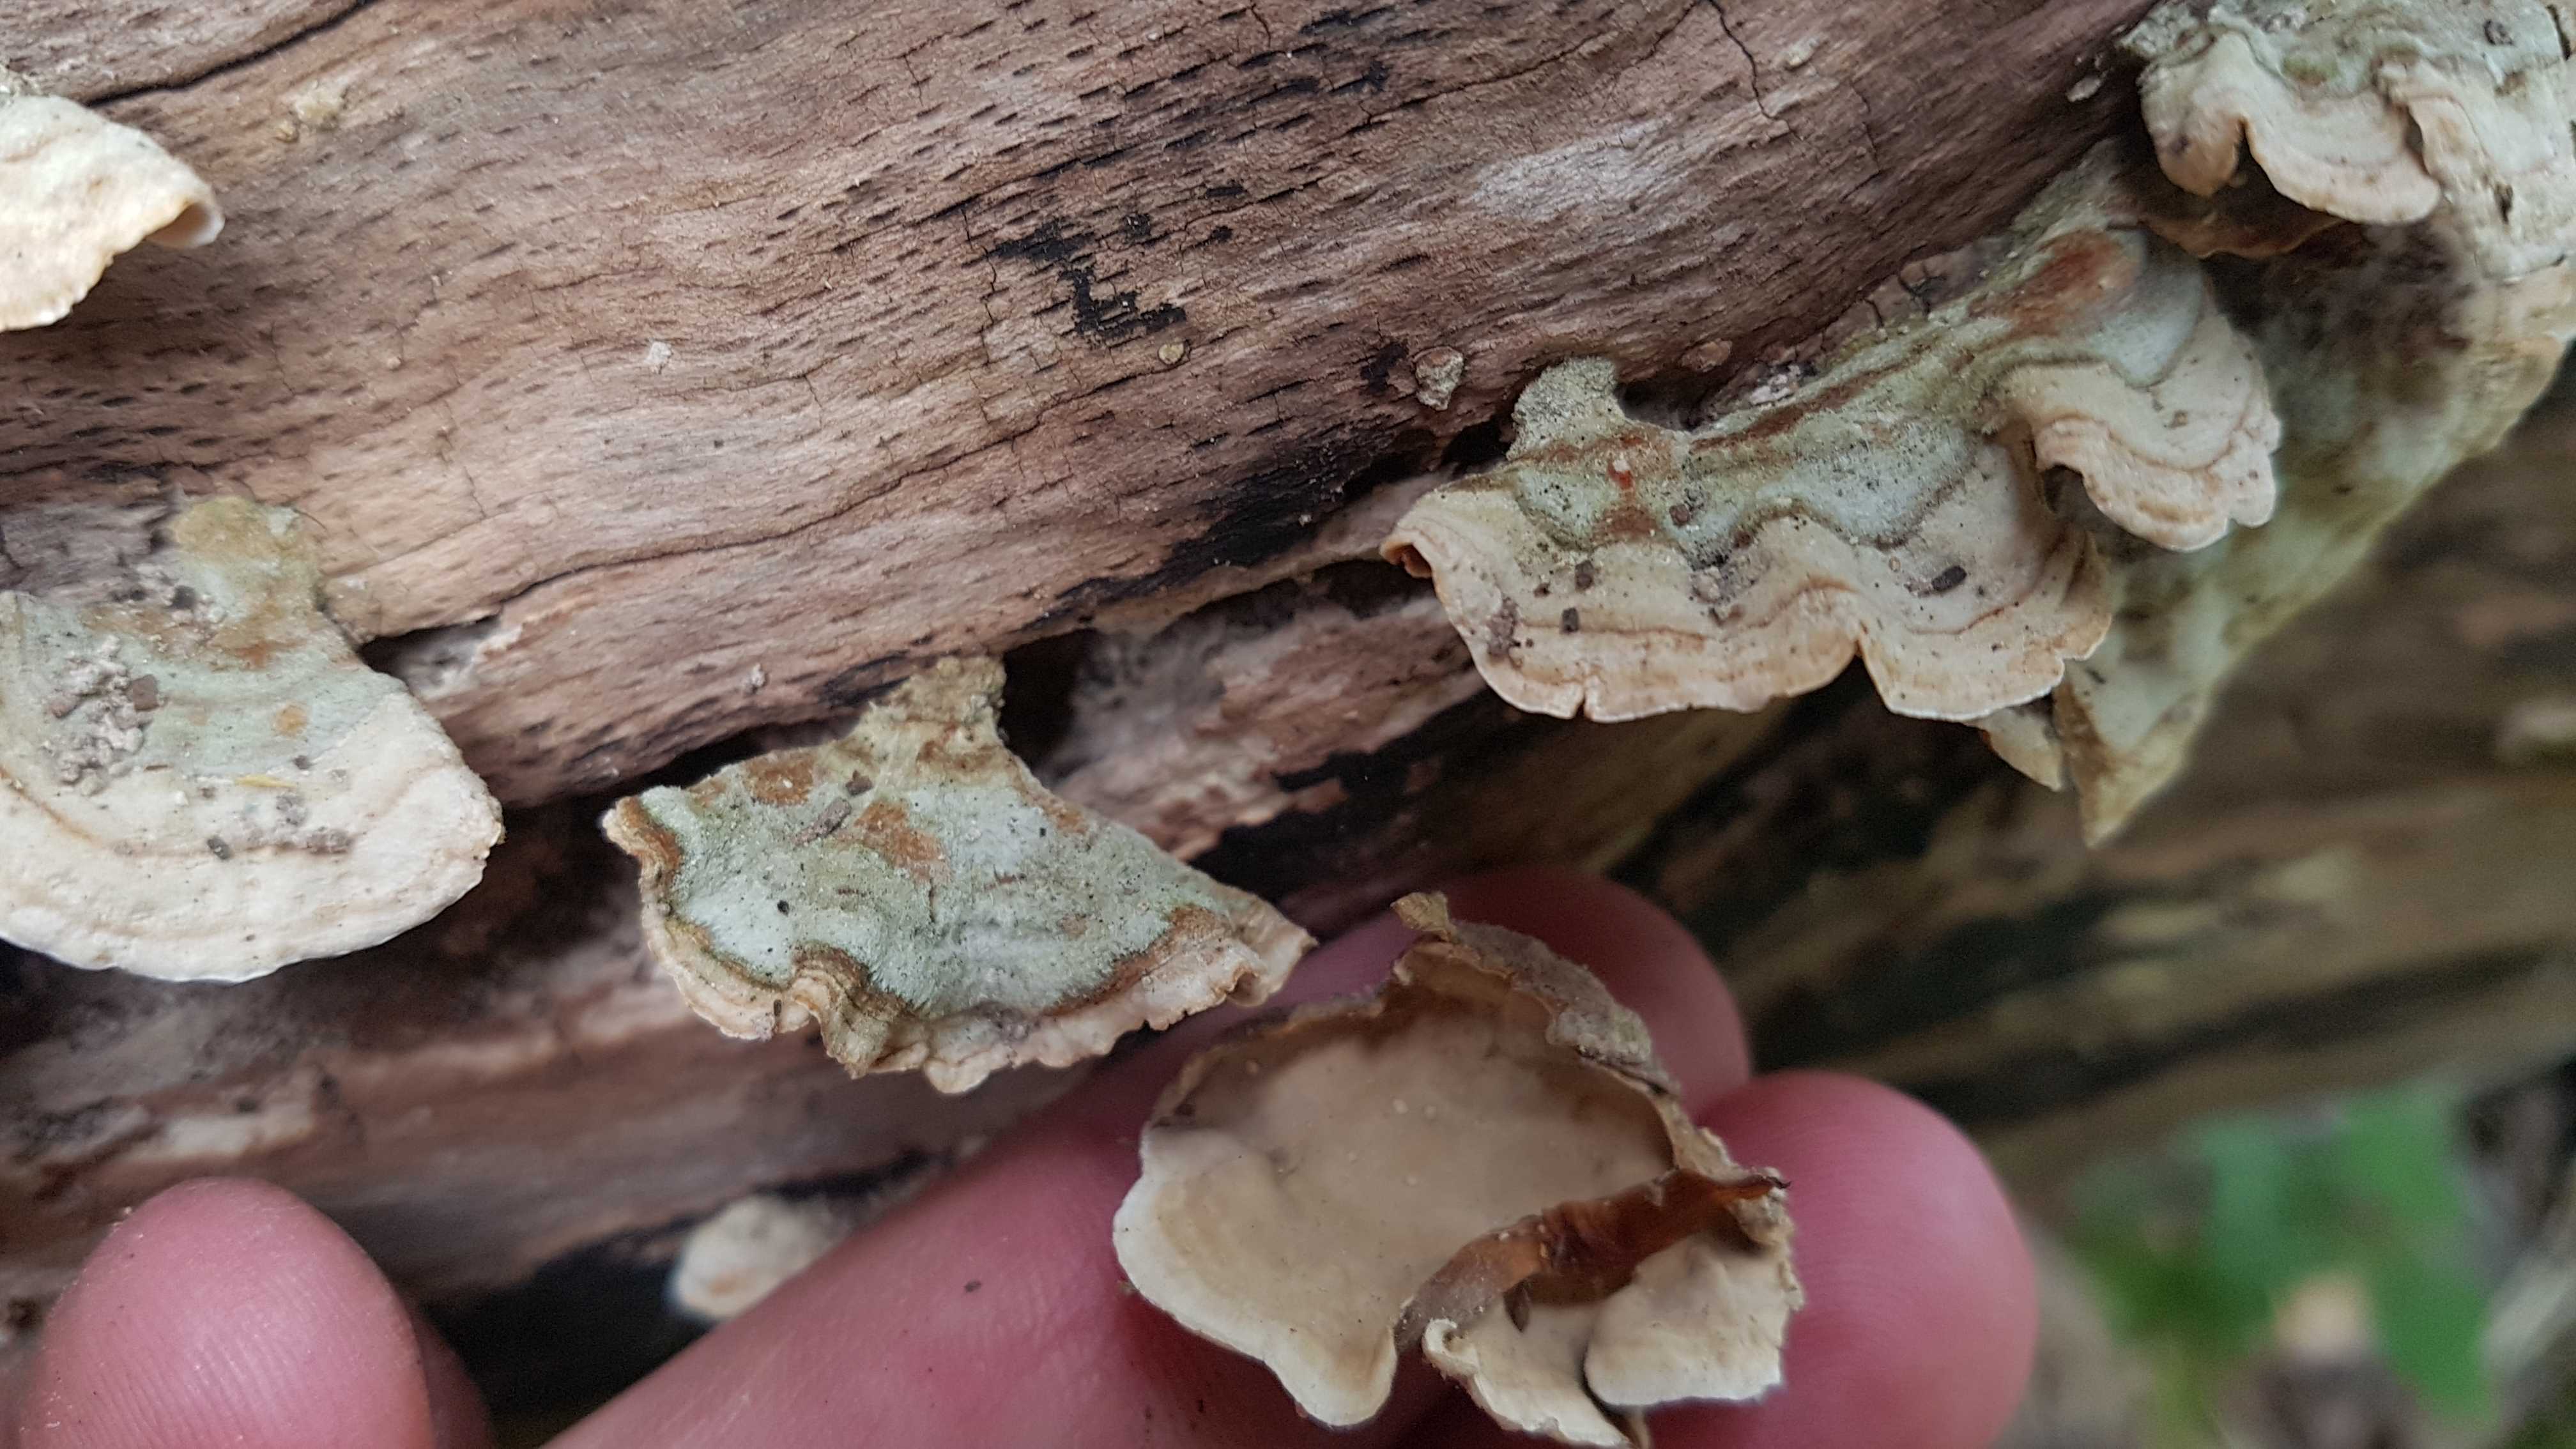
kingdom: Fungi
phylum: Basidiomycota
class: Agaricomycetes
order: Russulales
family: Stereaceae
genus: Stereum
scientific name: Stereum hirsutum
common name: håret lædersvamp
